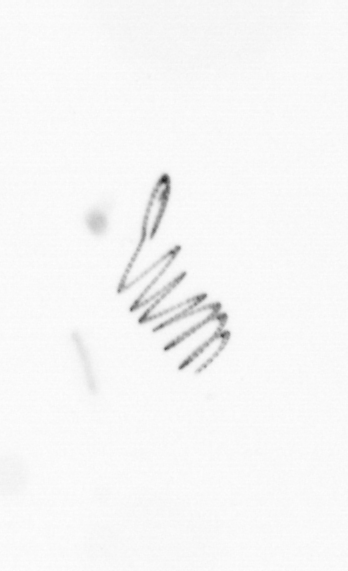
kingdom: Chromista
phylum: Ochrophyta
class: Bacillariophyceae
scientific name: Bacillariophyceae
